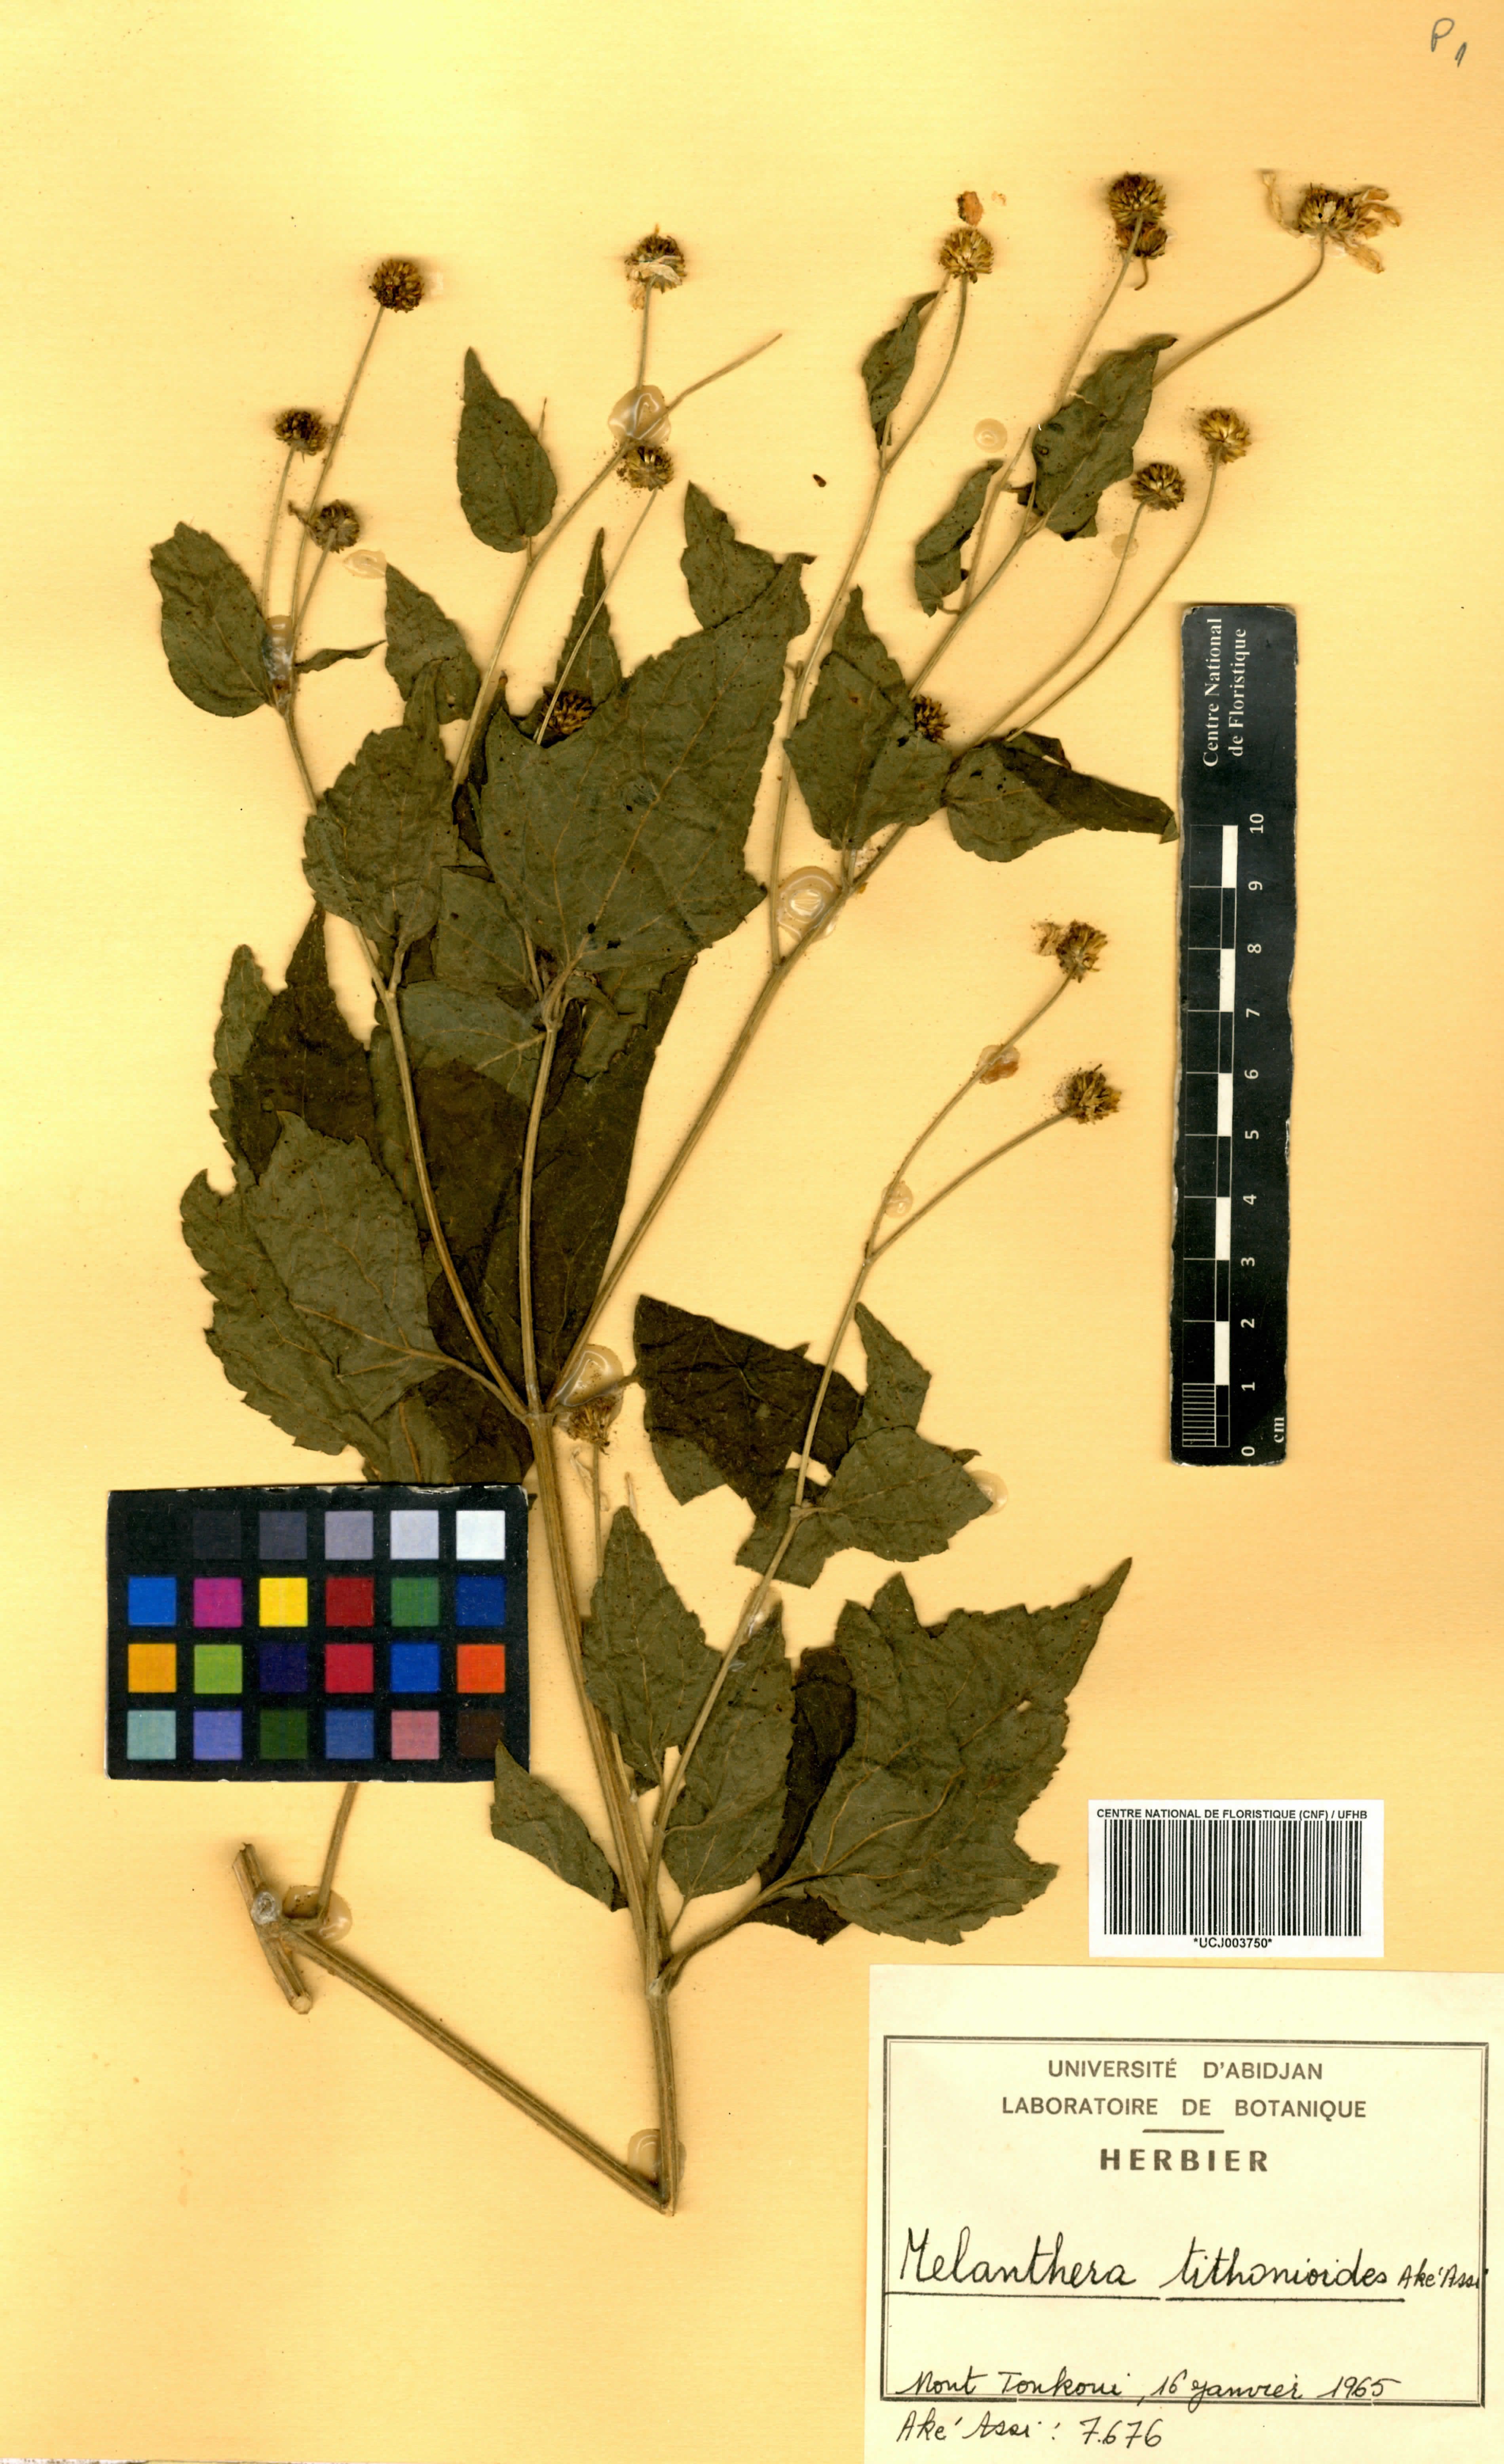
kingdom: Plantae
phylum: Tracheophyta
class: Magnoliopsida
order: Asterales
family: Asteraceae
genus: Lipotriche
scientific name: Lipotriche tithonioides
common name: Simandou daisy
